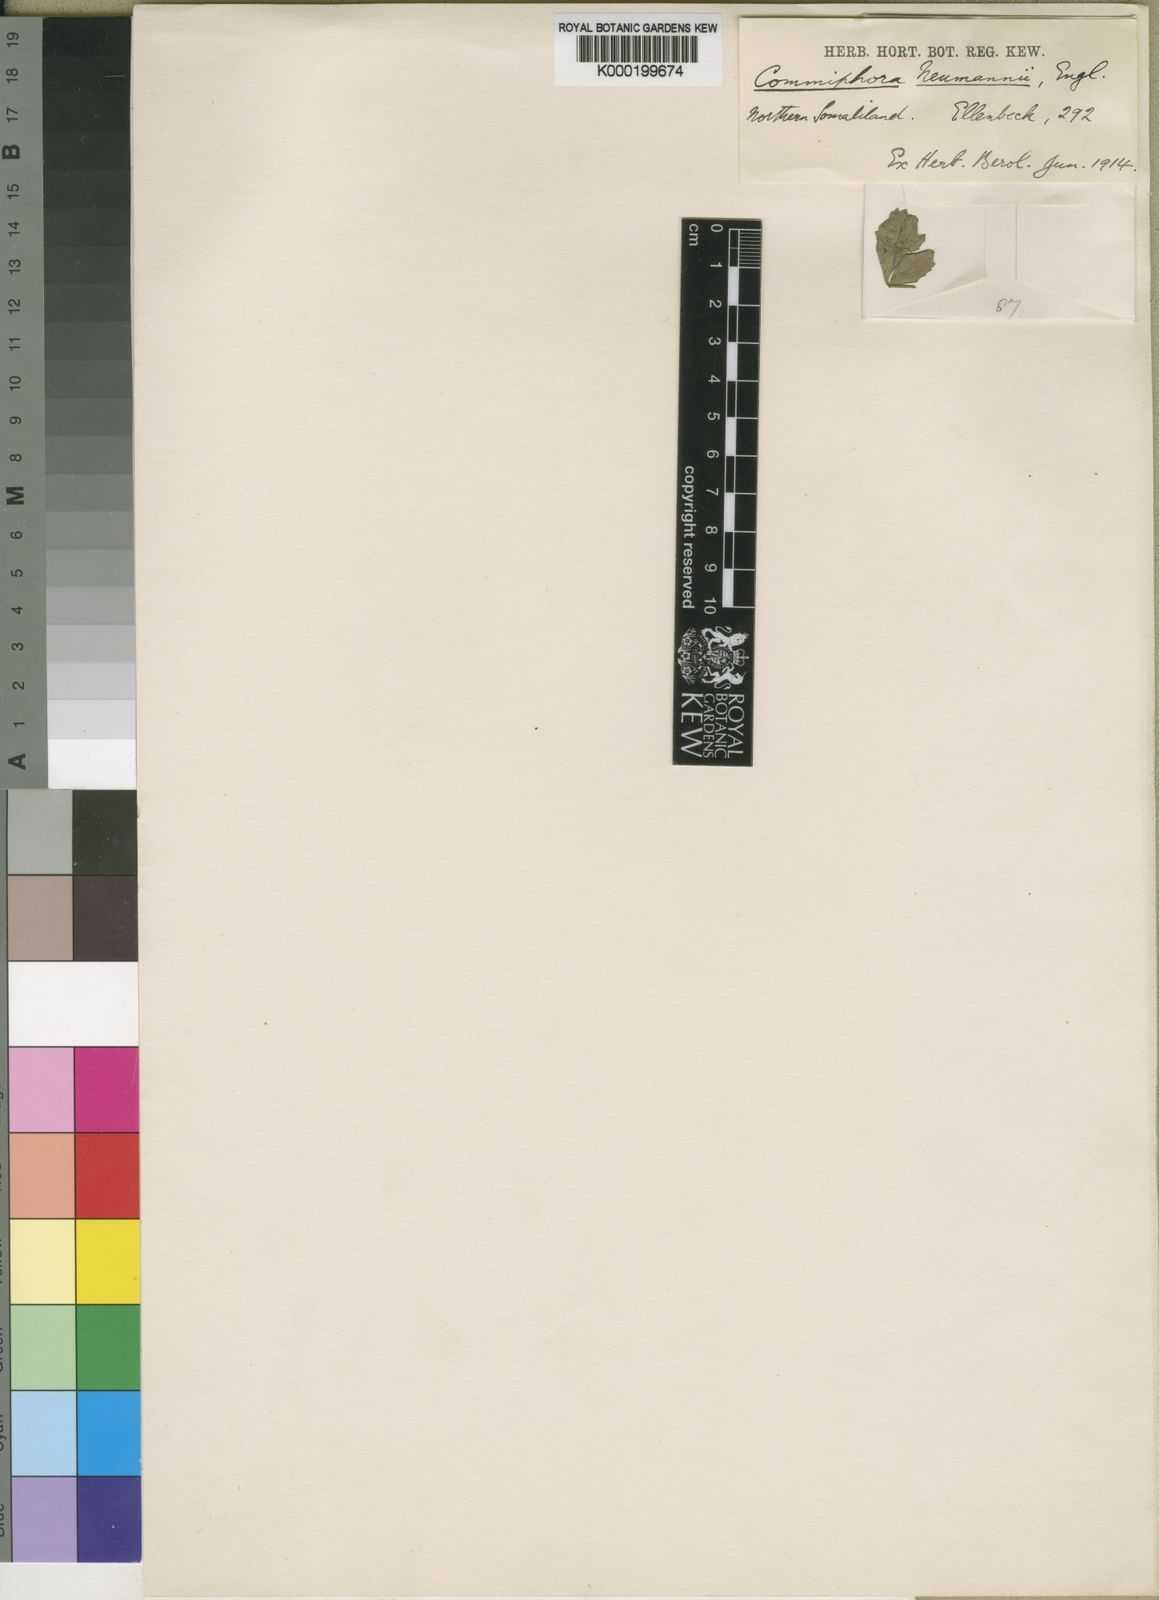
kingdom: Plantae
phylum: Tracheophyta
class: Magnoliopsida
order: Sapindales
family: Burseraceae
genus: Commiphora
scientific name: Commiphora schimperi
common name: Glossy-leaved corkwood
